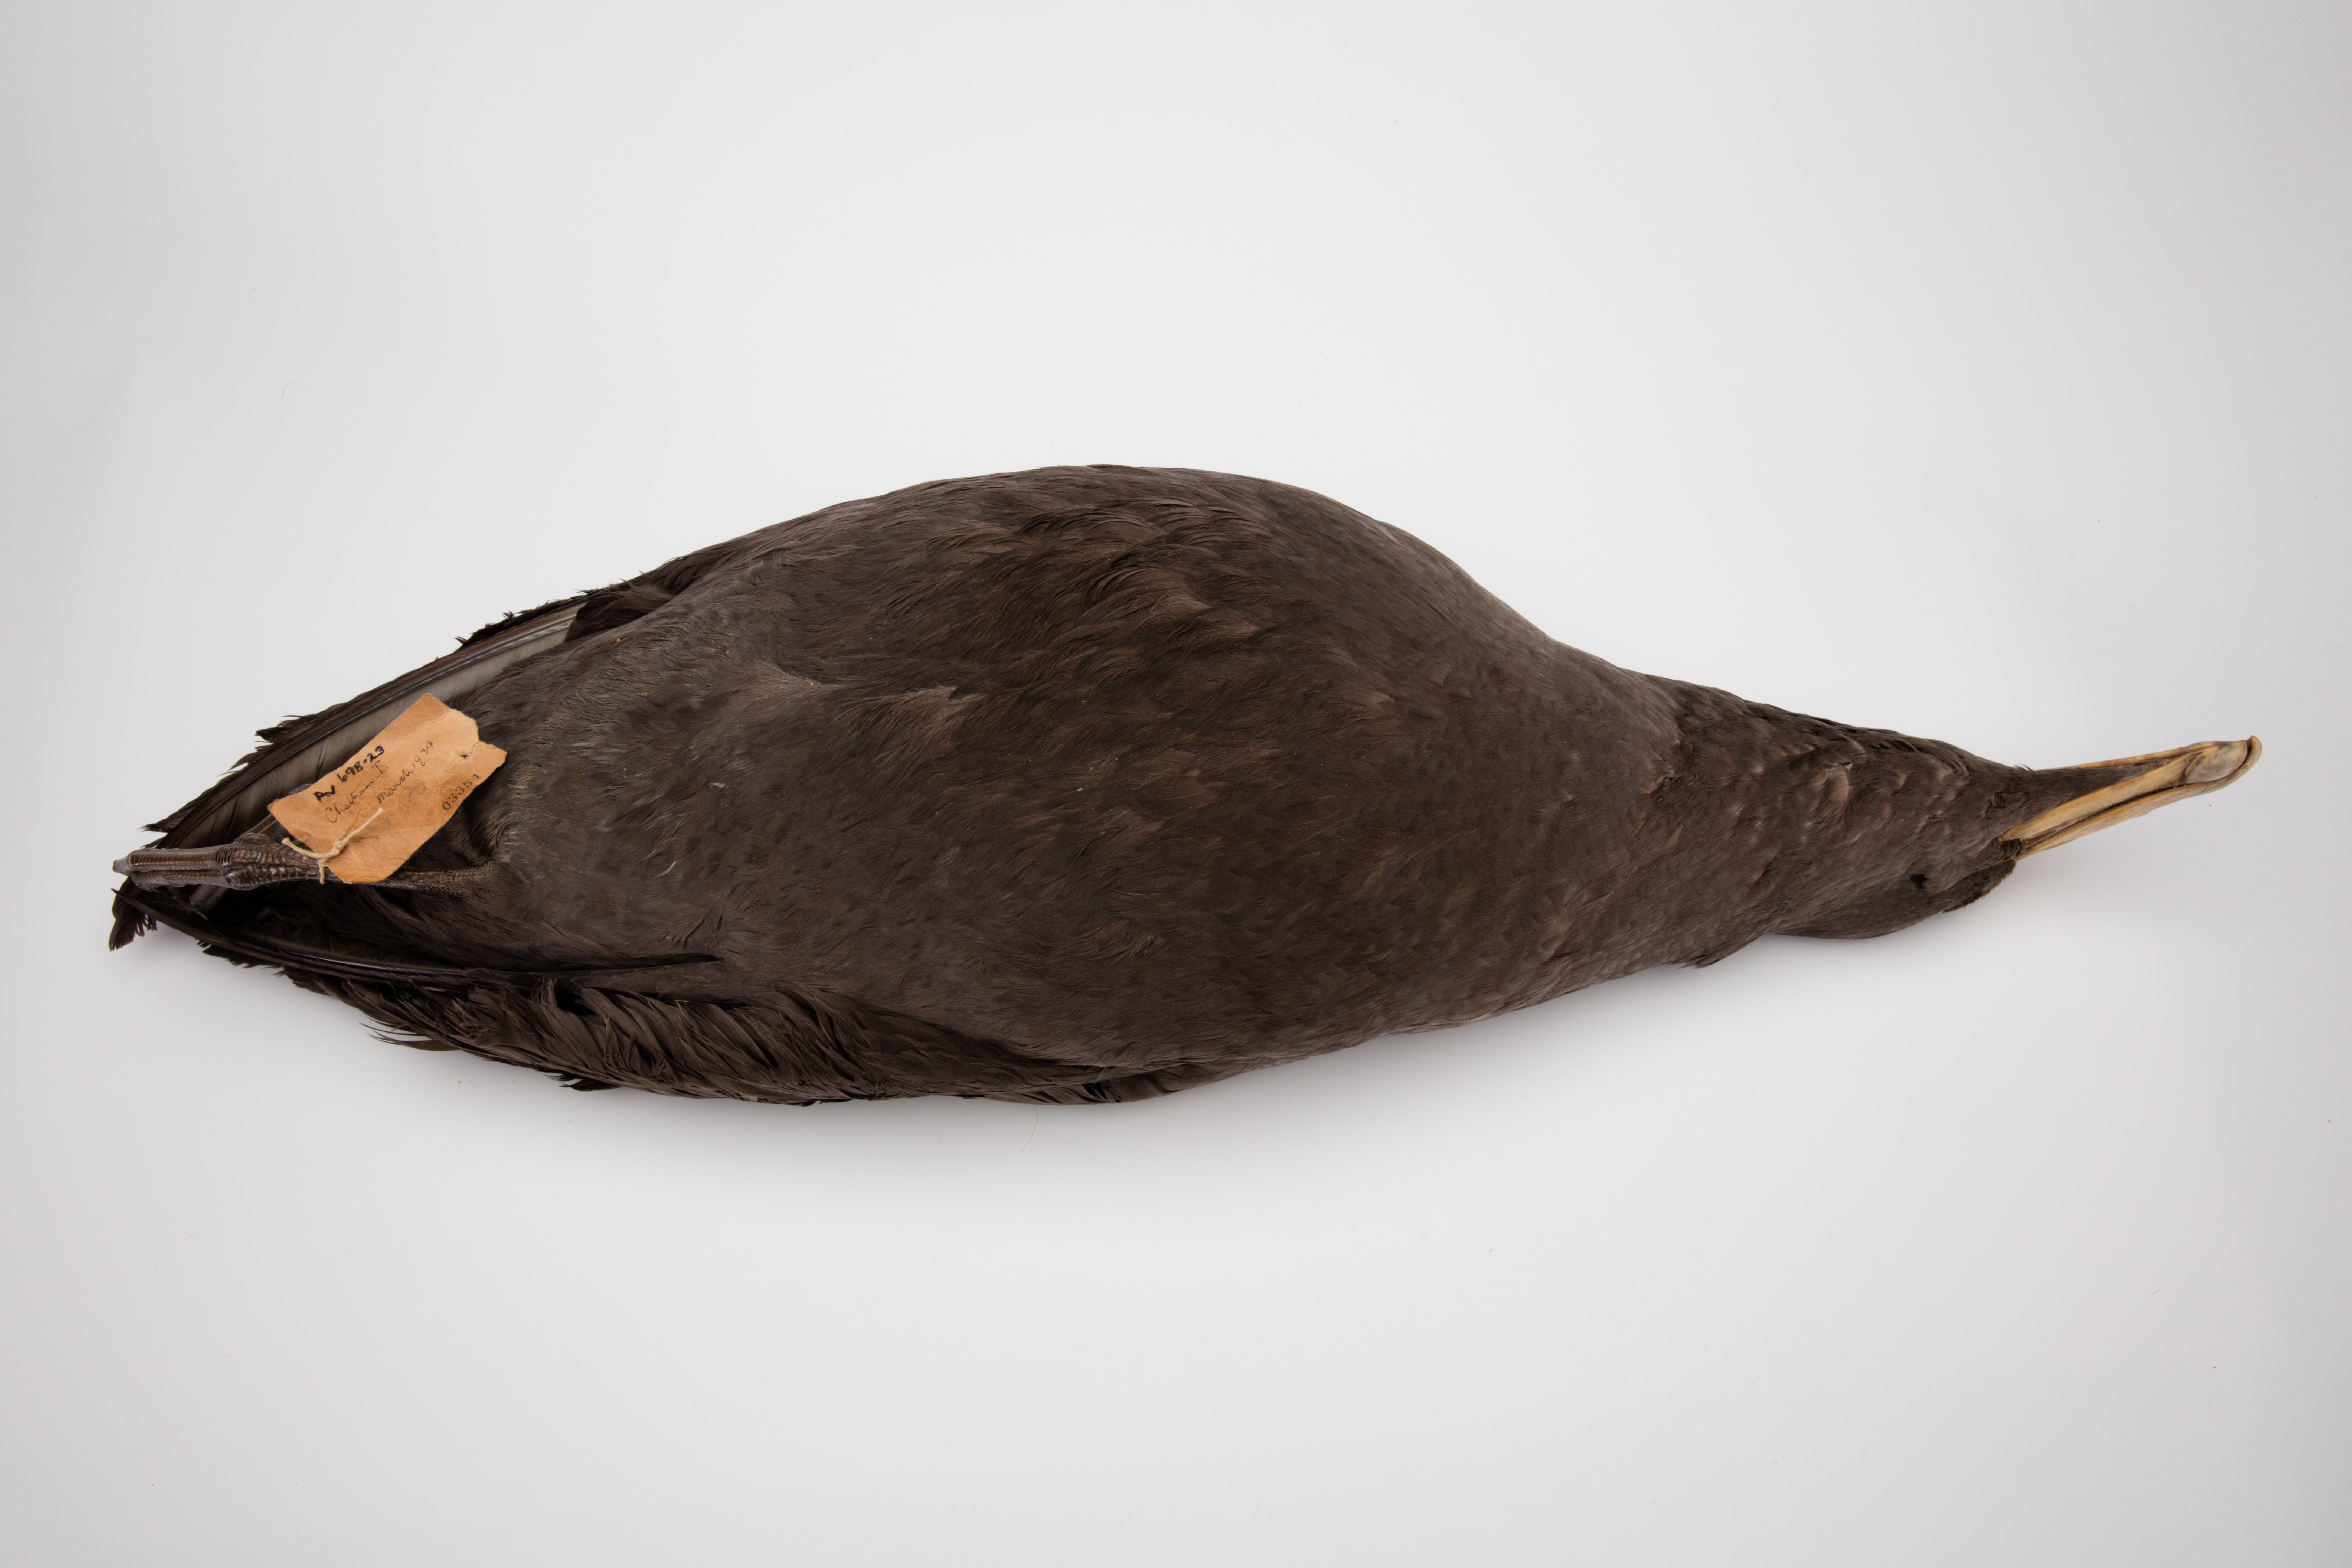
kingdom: Animalia
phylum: Chordata
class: Aves
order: Procellariiformes
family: Procellariidae
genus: Macronectes
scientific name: Macronectes giganteus
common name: Southern giant petrel
